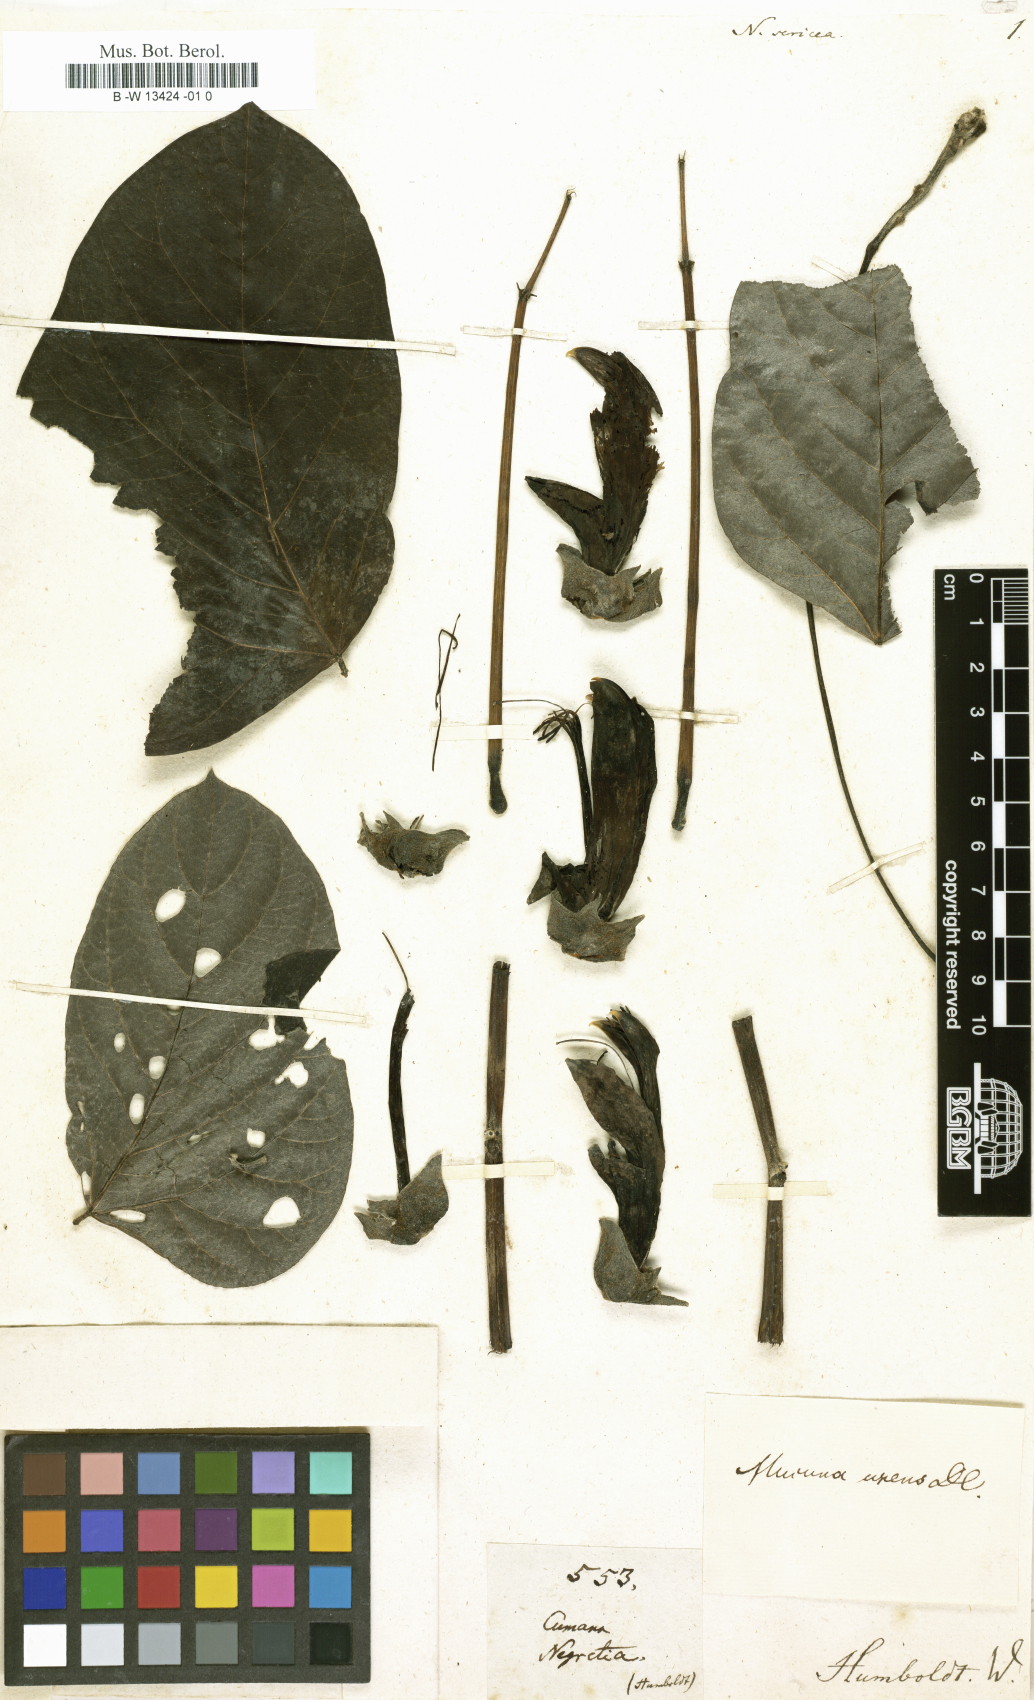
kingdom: Plantae
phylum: Tracheophyta
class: Magnoliopsida
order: Fabales
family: Fabaceae
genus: Mucuna
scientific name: Mucuna urens
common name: Red hamburger bean
